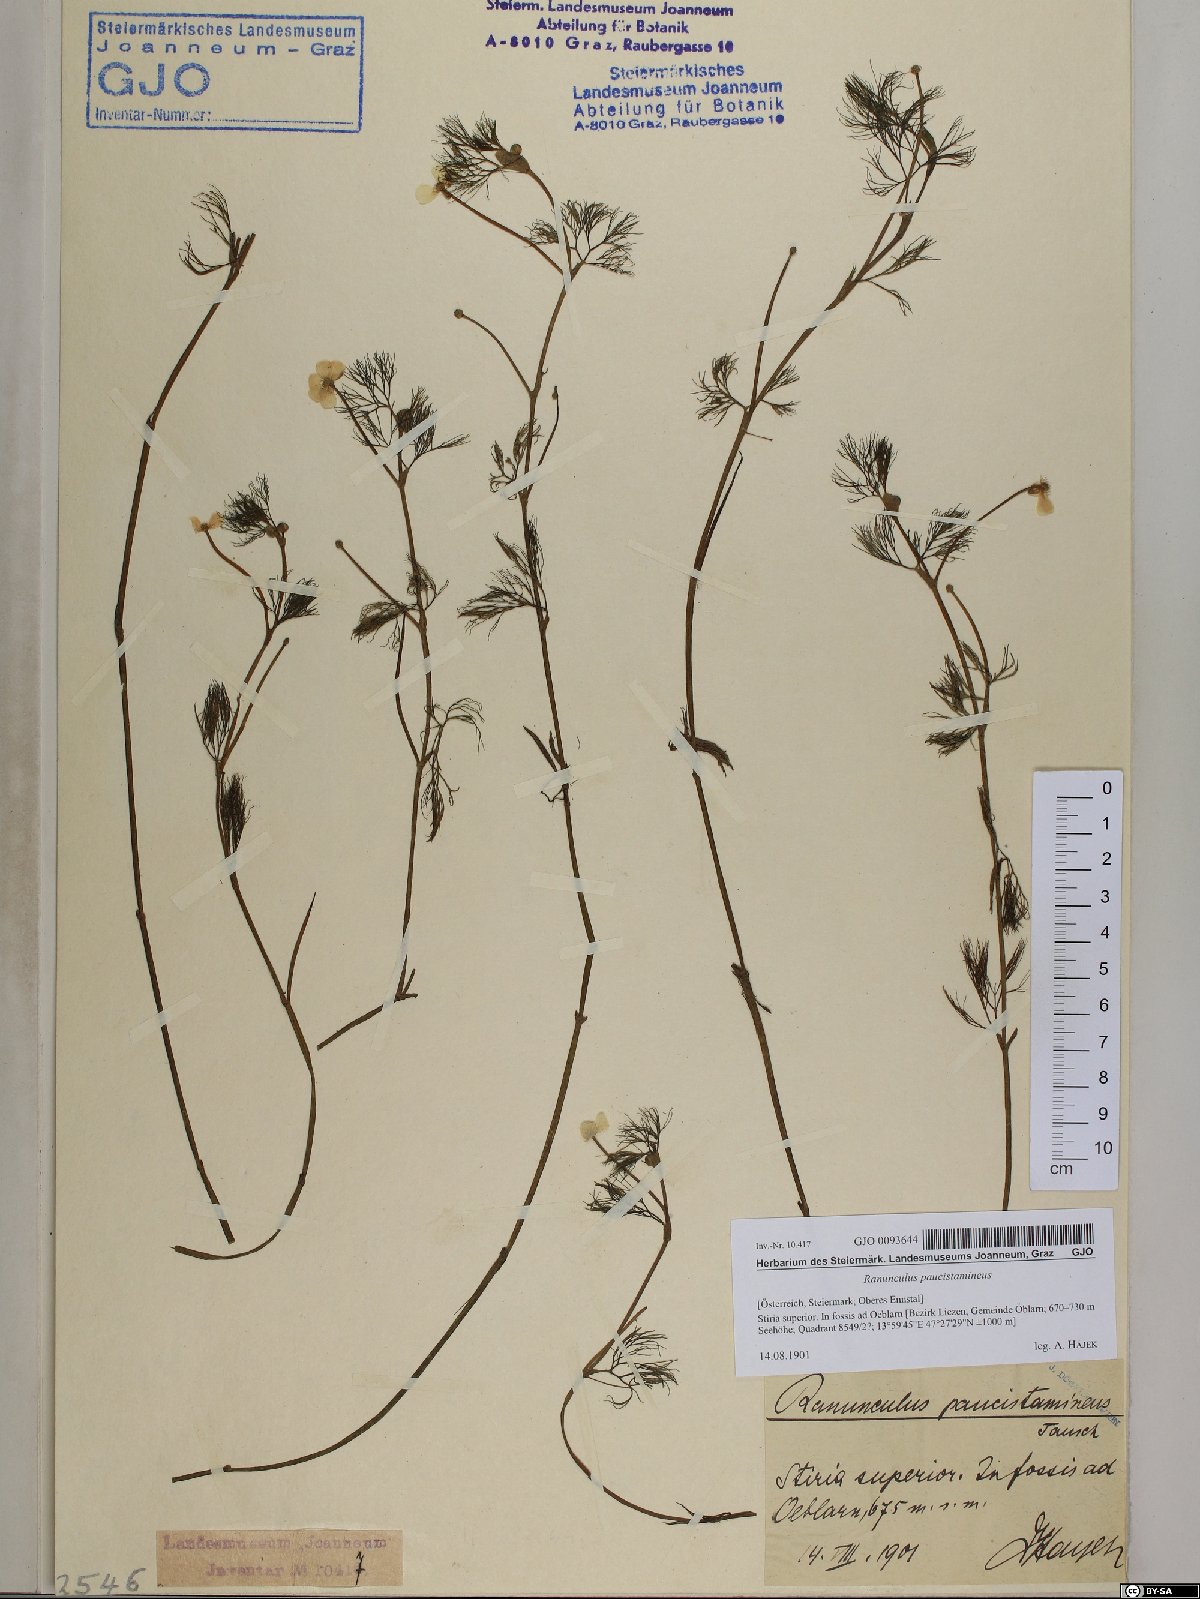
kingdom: Plantae
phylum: Tracheophyta
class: Magnoliopsida
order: Ranunculales
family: Ranunculaceae
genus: Ranunculus
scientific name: Ranunculus
